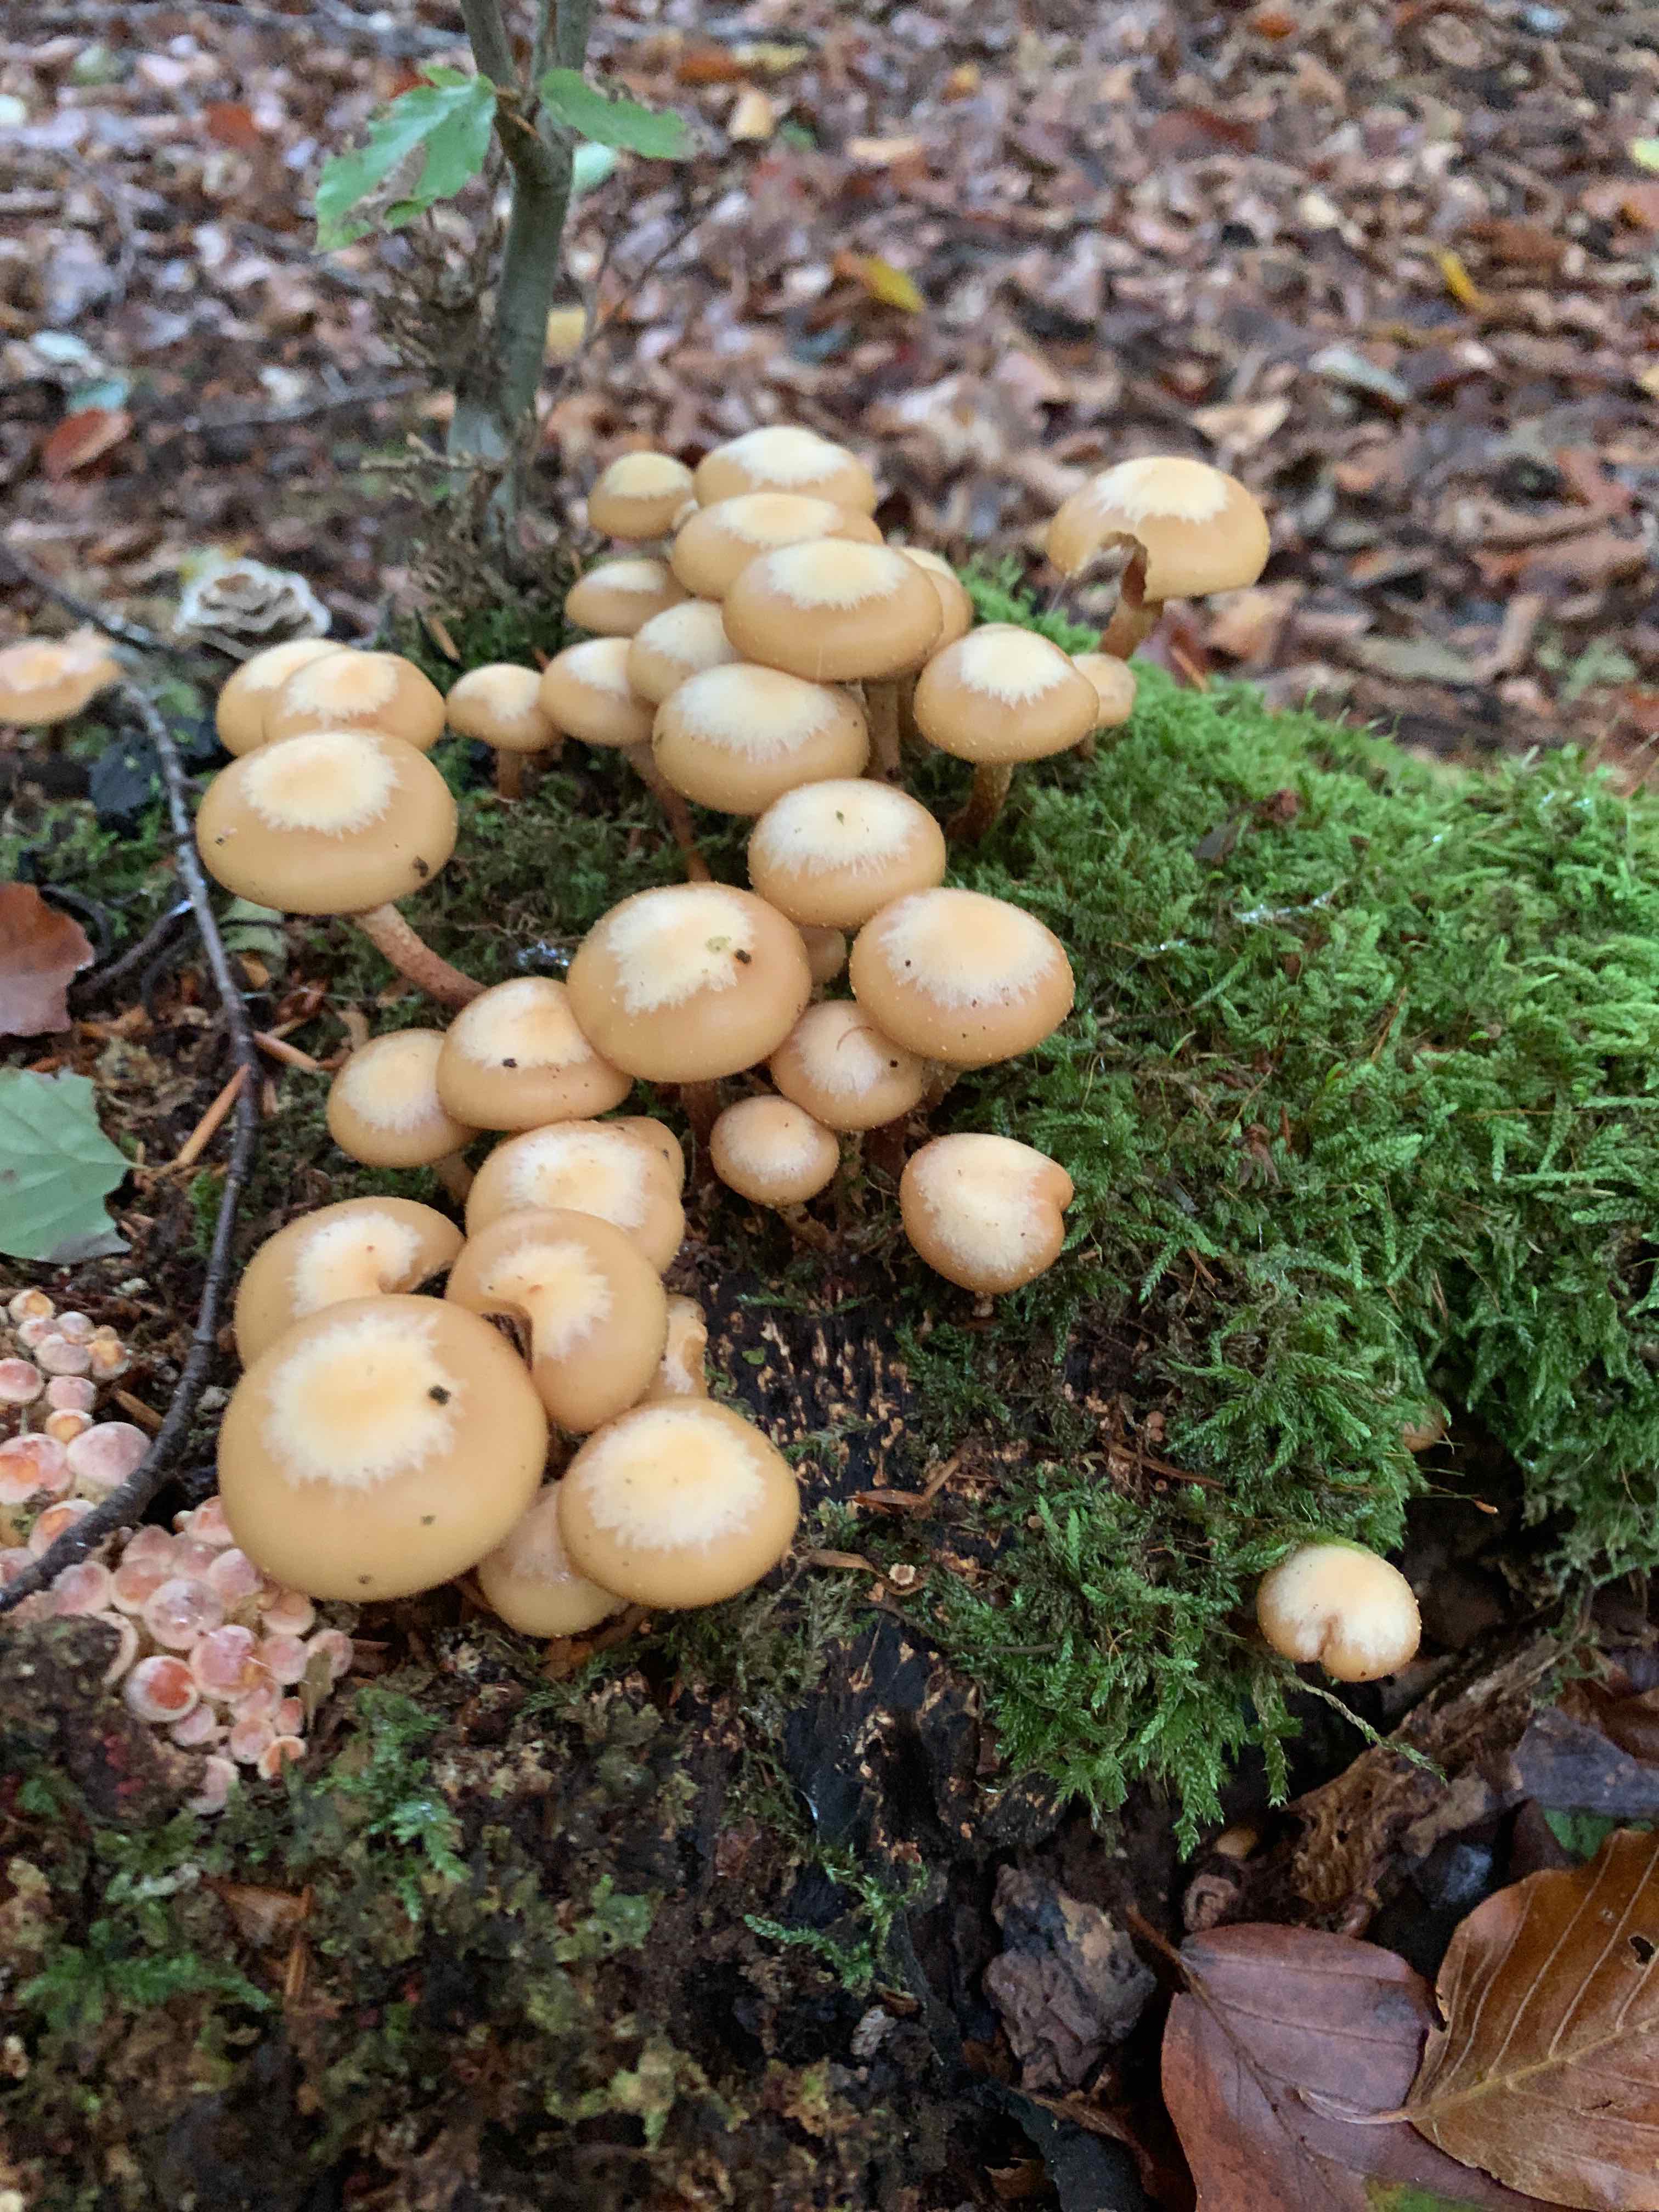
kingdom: Fungi
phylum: Basidiomycota
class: Agaricomycetes
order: Agaricales
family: Strophariaceae
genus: Kuehneromyces
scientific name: Kuehneromyces mutabilis
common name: foranderlig skælhat
